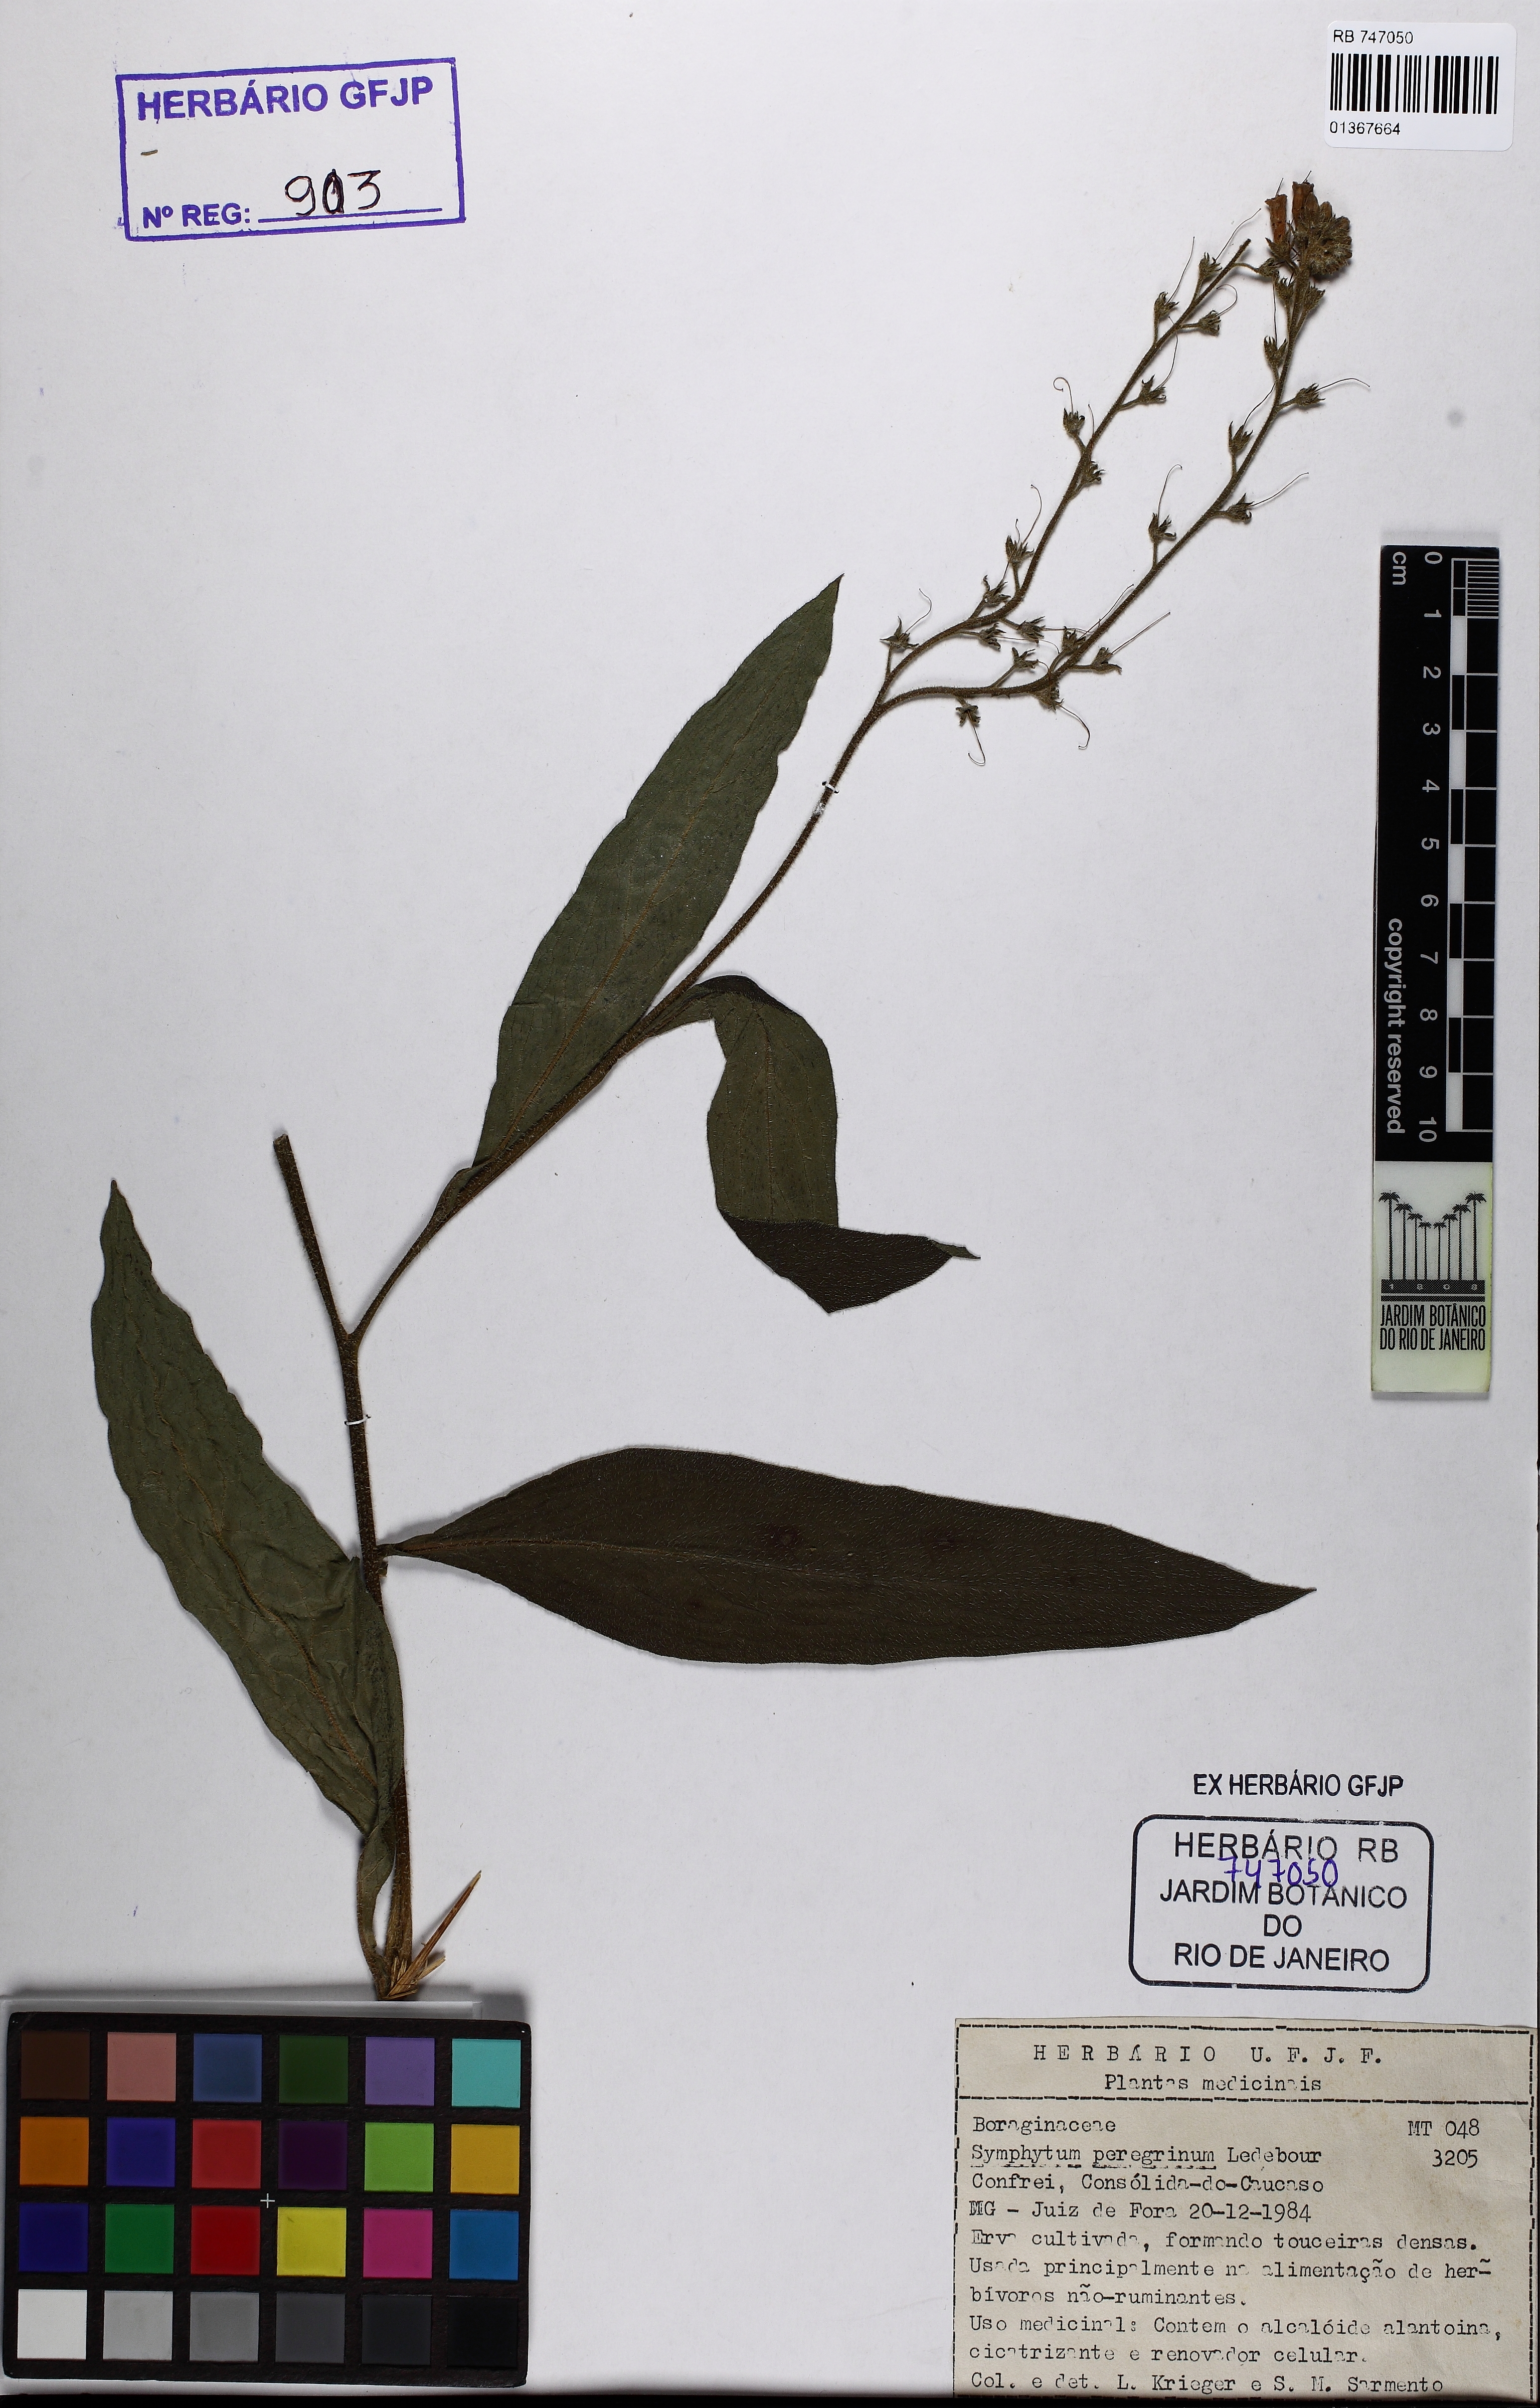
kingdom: Plantae
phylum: Tracheophyta
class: Magnoliopsida
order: Boraginales
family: Boraginaceae
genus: Symphytum
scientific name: Symphytum officinale
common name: Common comfrey
